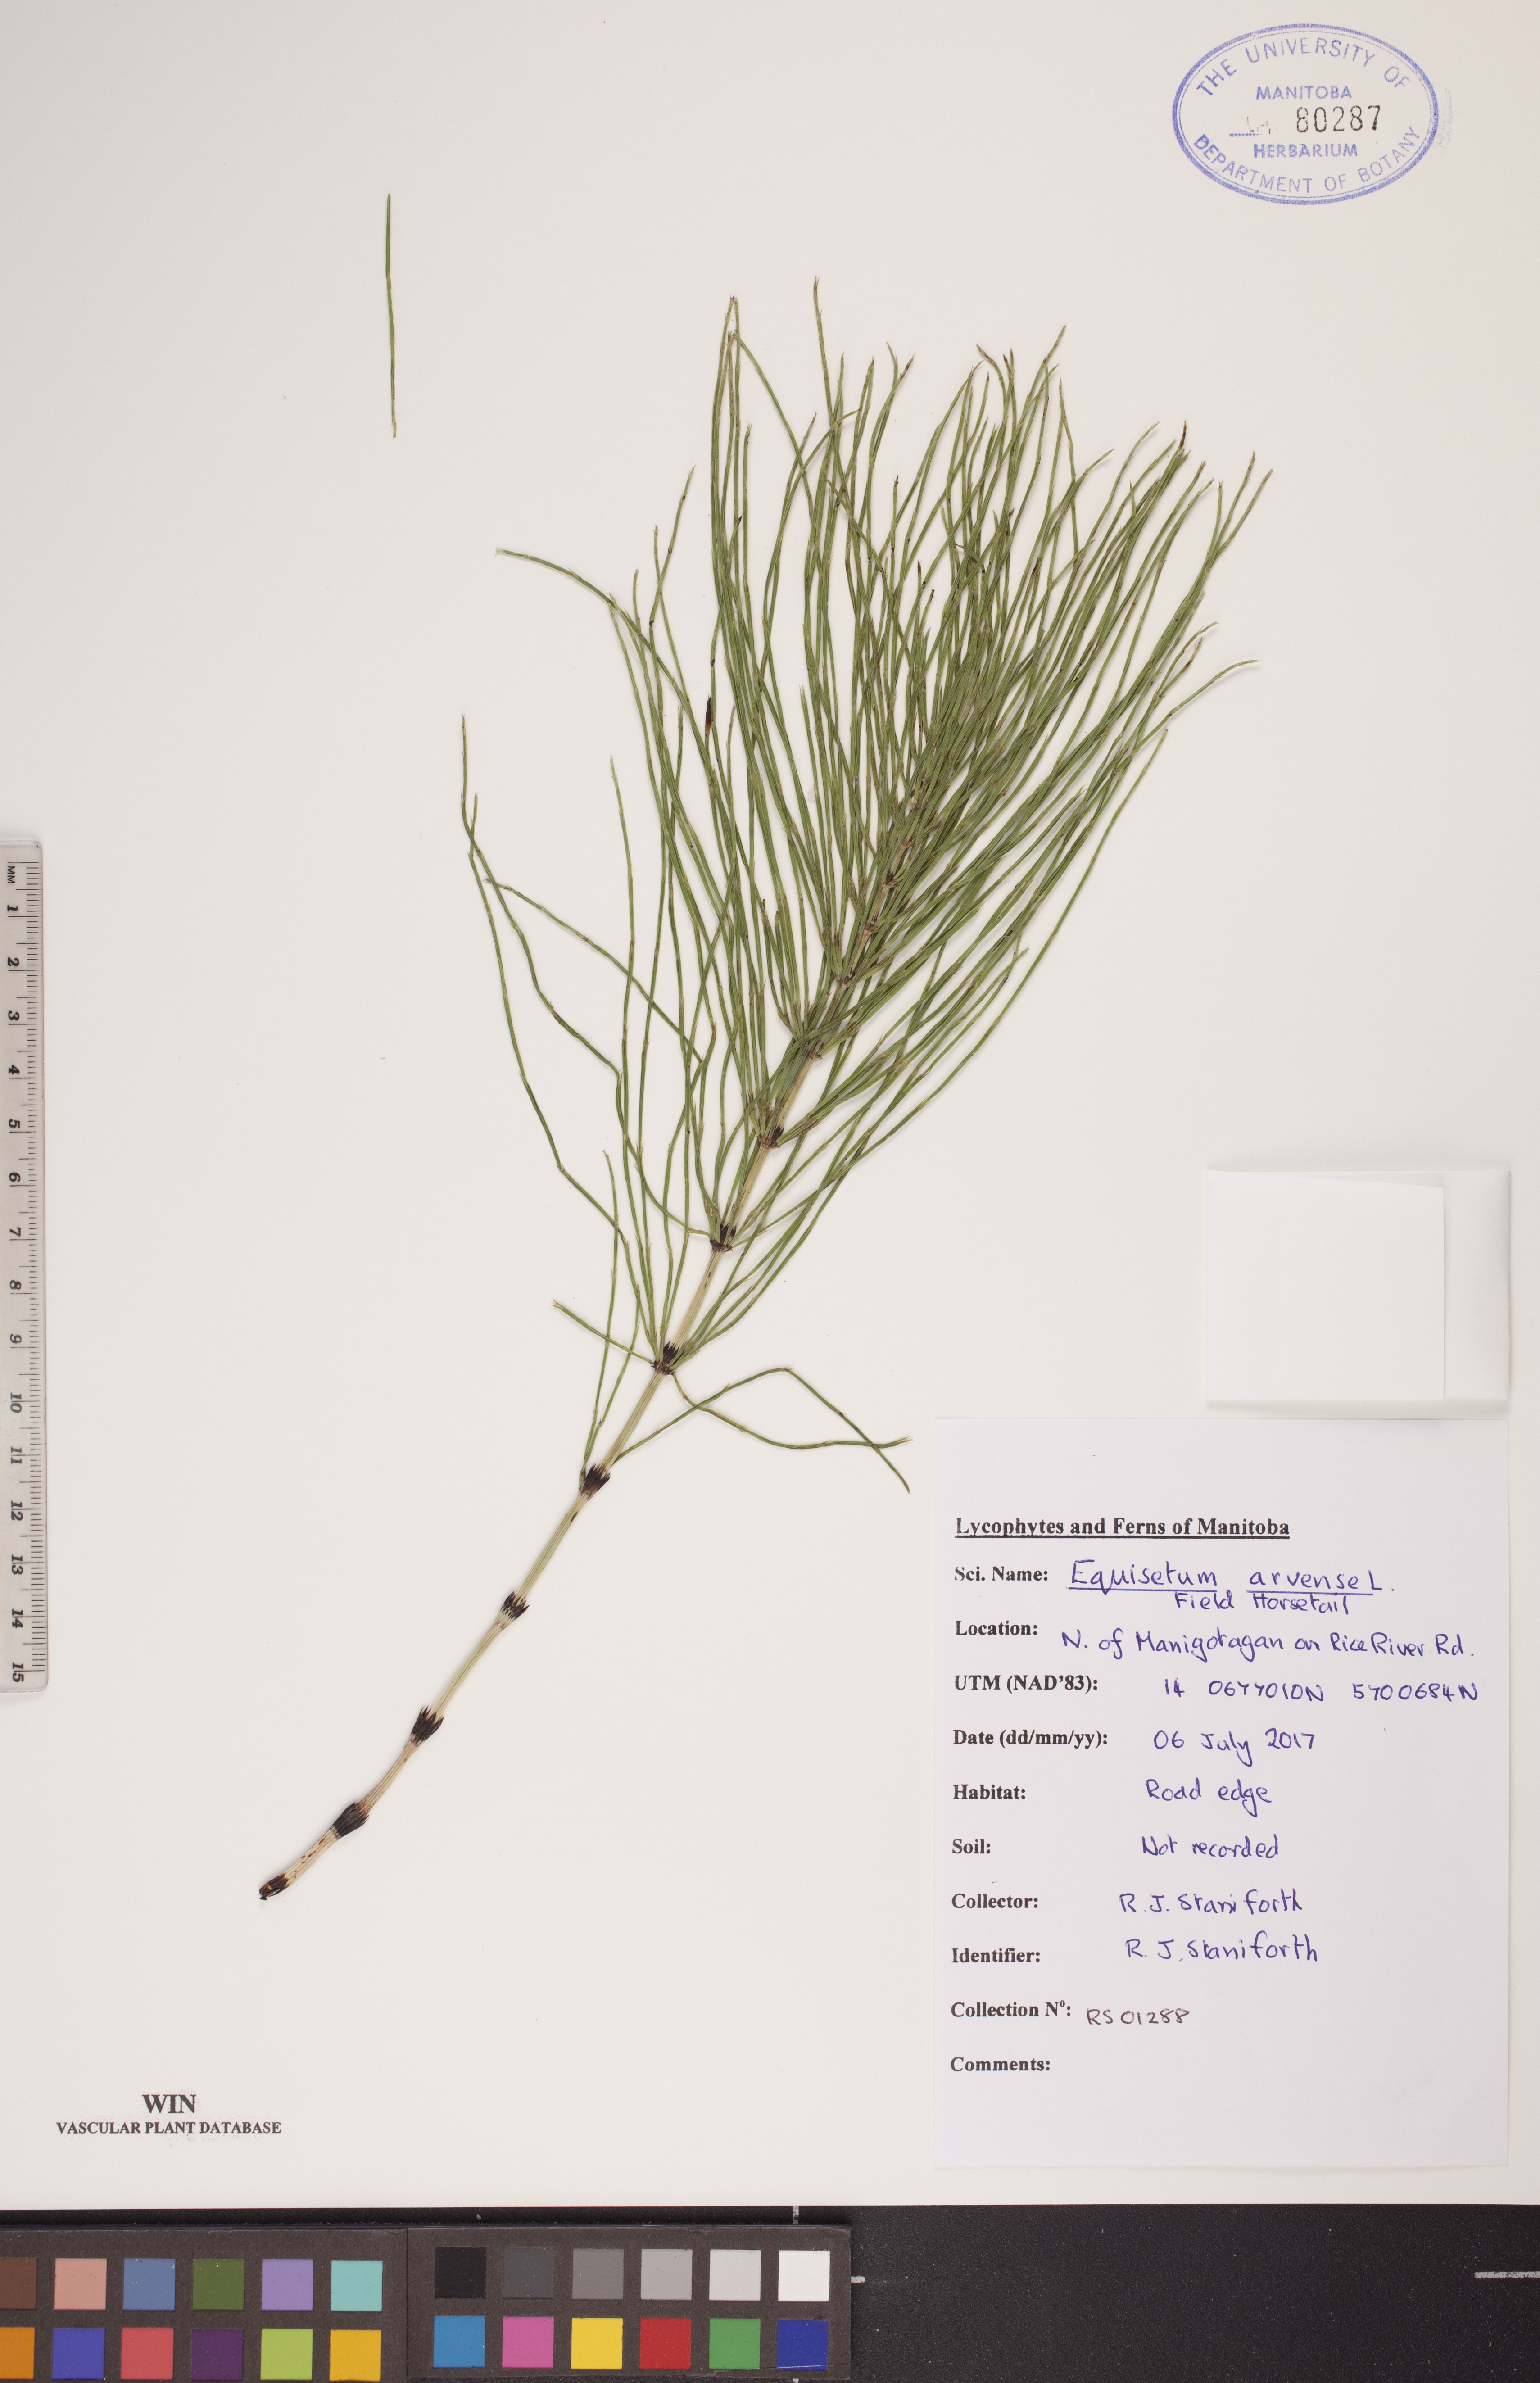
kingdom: Plantae
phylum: Tracheophyta
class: Polypodiopsida
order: Equisetales
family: Equisetaceae
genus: Equisetum
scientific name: Equisetum arvense
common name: Field horsetail
